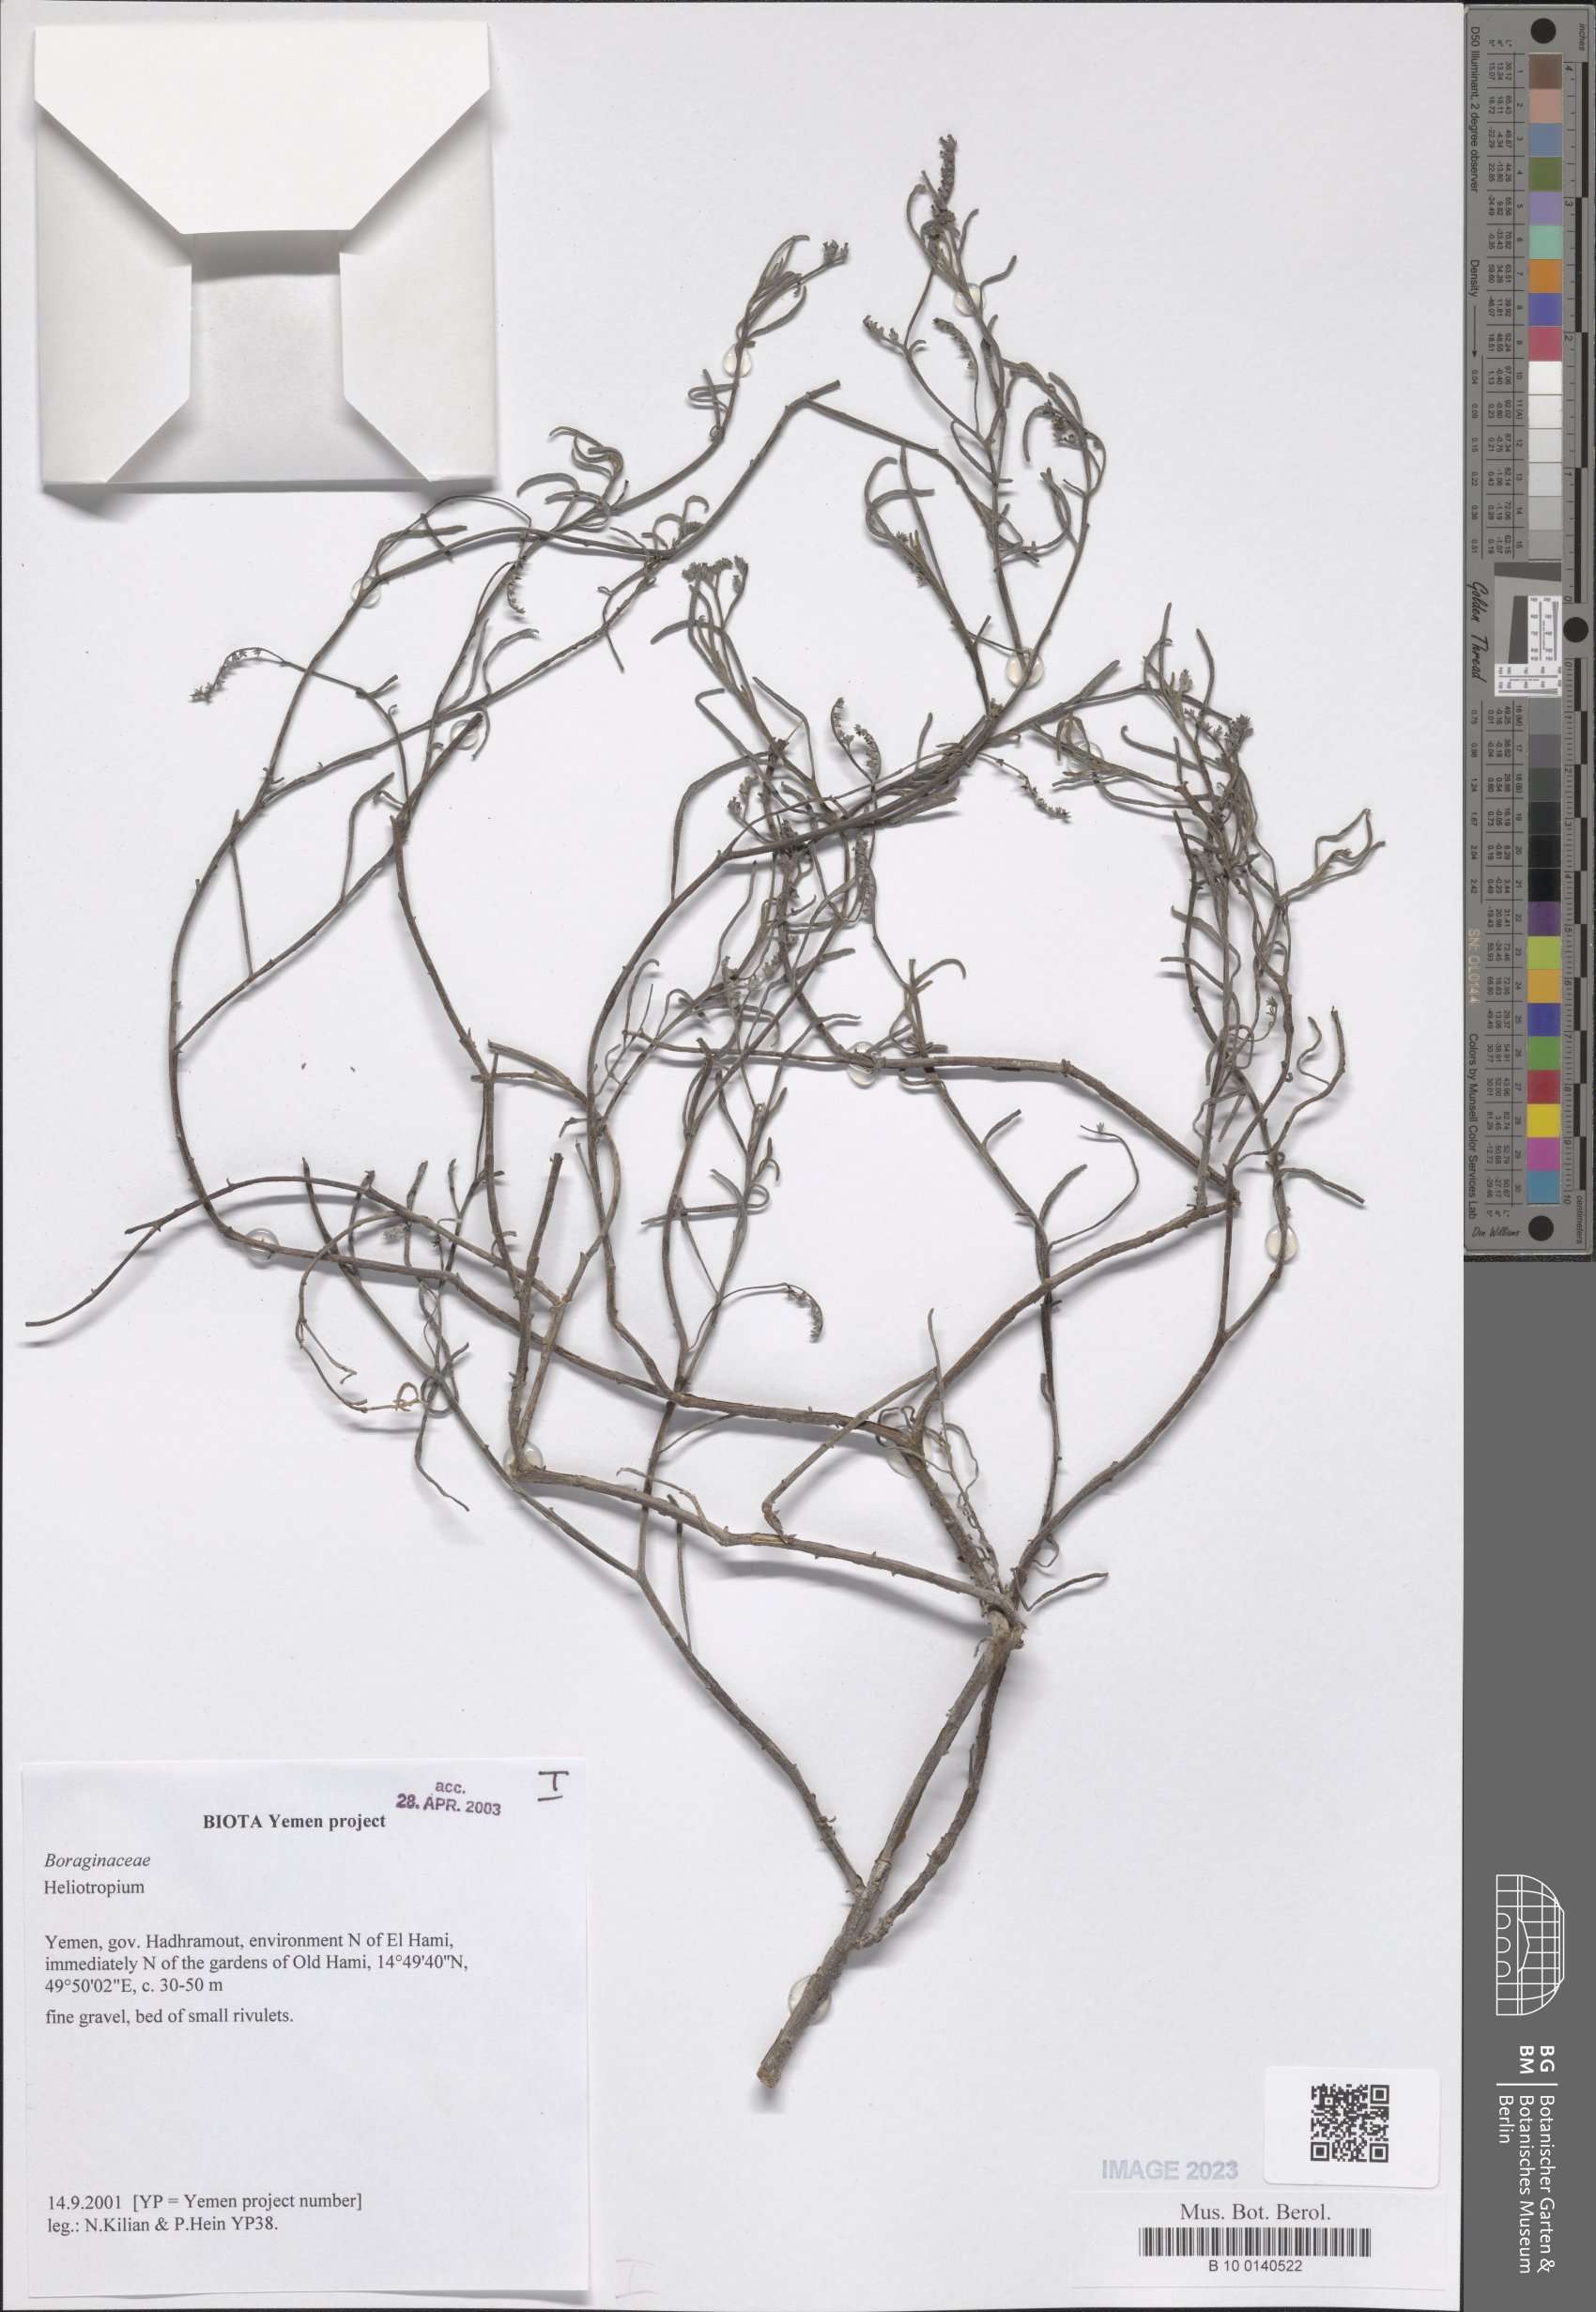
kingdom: Plantae
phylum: Tracheophyta
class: Magnoliopsida
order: Boraginales
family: Heliotropiaceae
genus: Heliotropium
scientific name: Heliotropium
